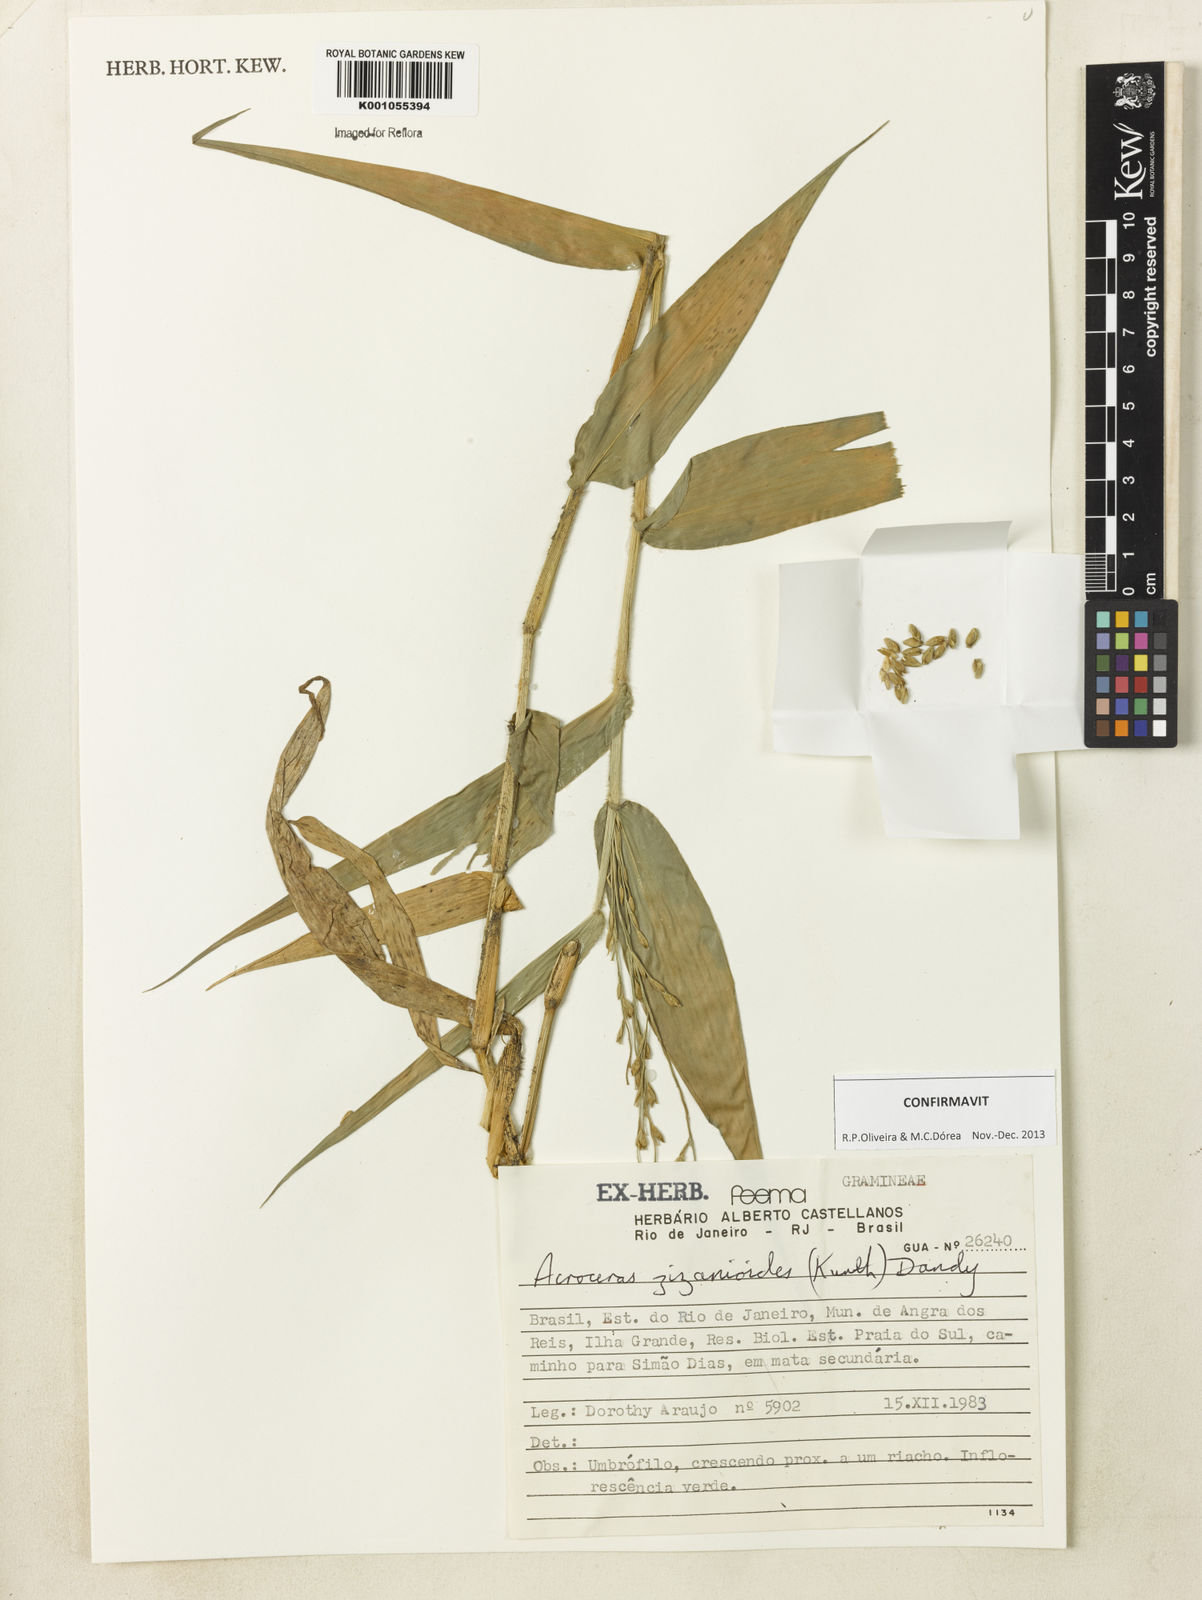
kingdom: Plantae
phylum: Tracheophyta
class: Liliopsida
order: Poales
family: Poaceae
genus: Acroceras
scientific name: Acroceras zizanioides
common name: Oat grass
